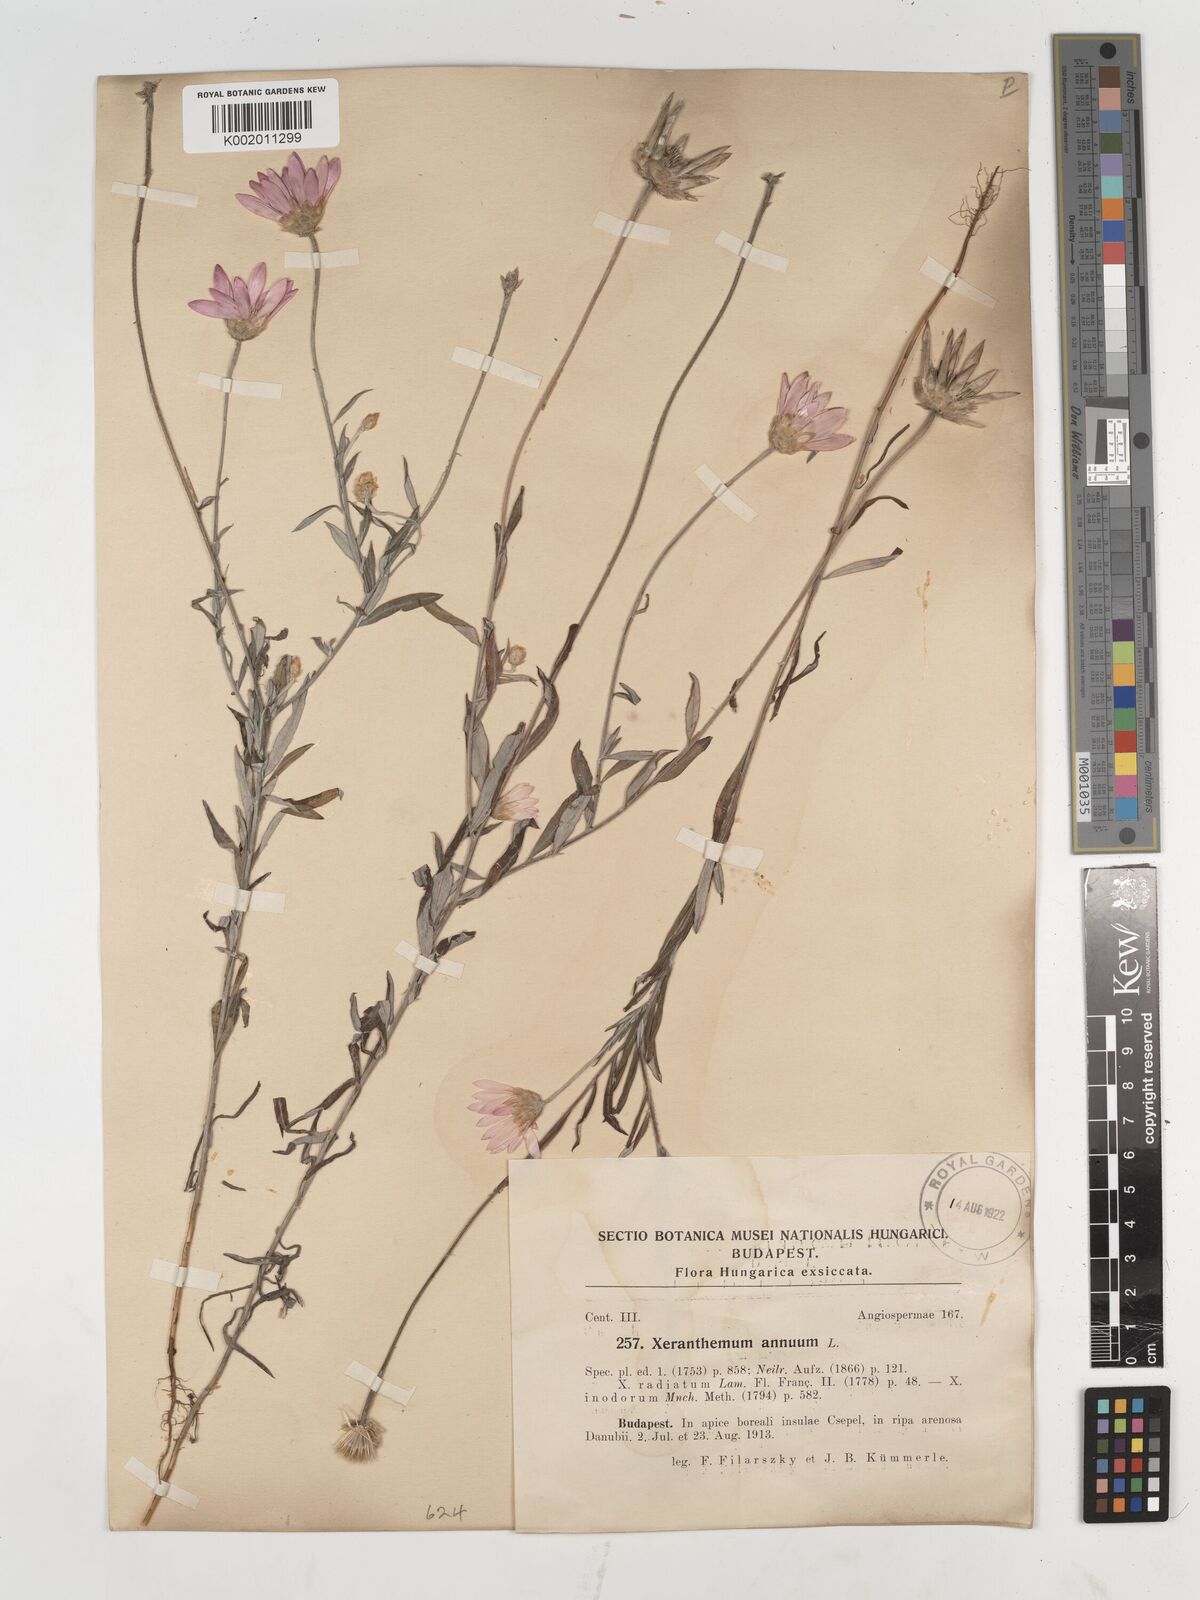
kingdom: Plantae
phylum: Tracheophyta
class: Magnoliopsida
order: Asterales
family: Asteraceae
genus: Xeranthemum
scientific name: Xeranthemum annuum
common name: Immortelle
